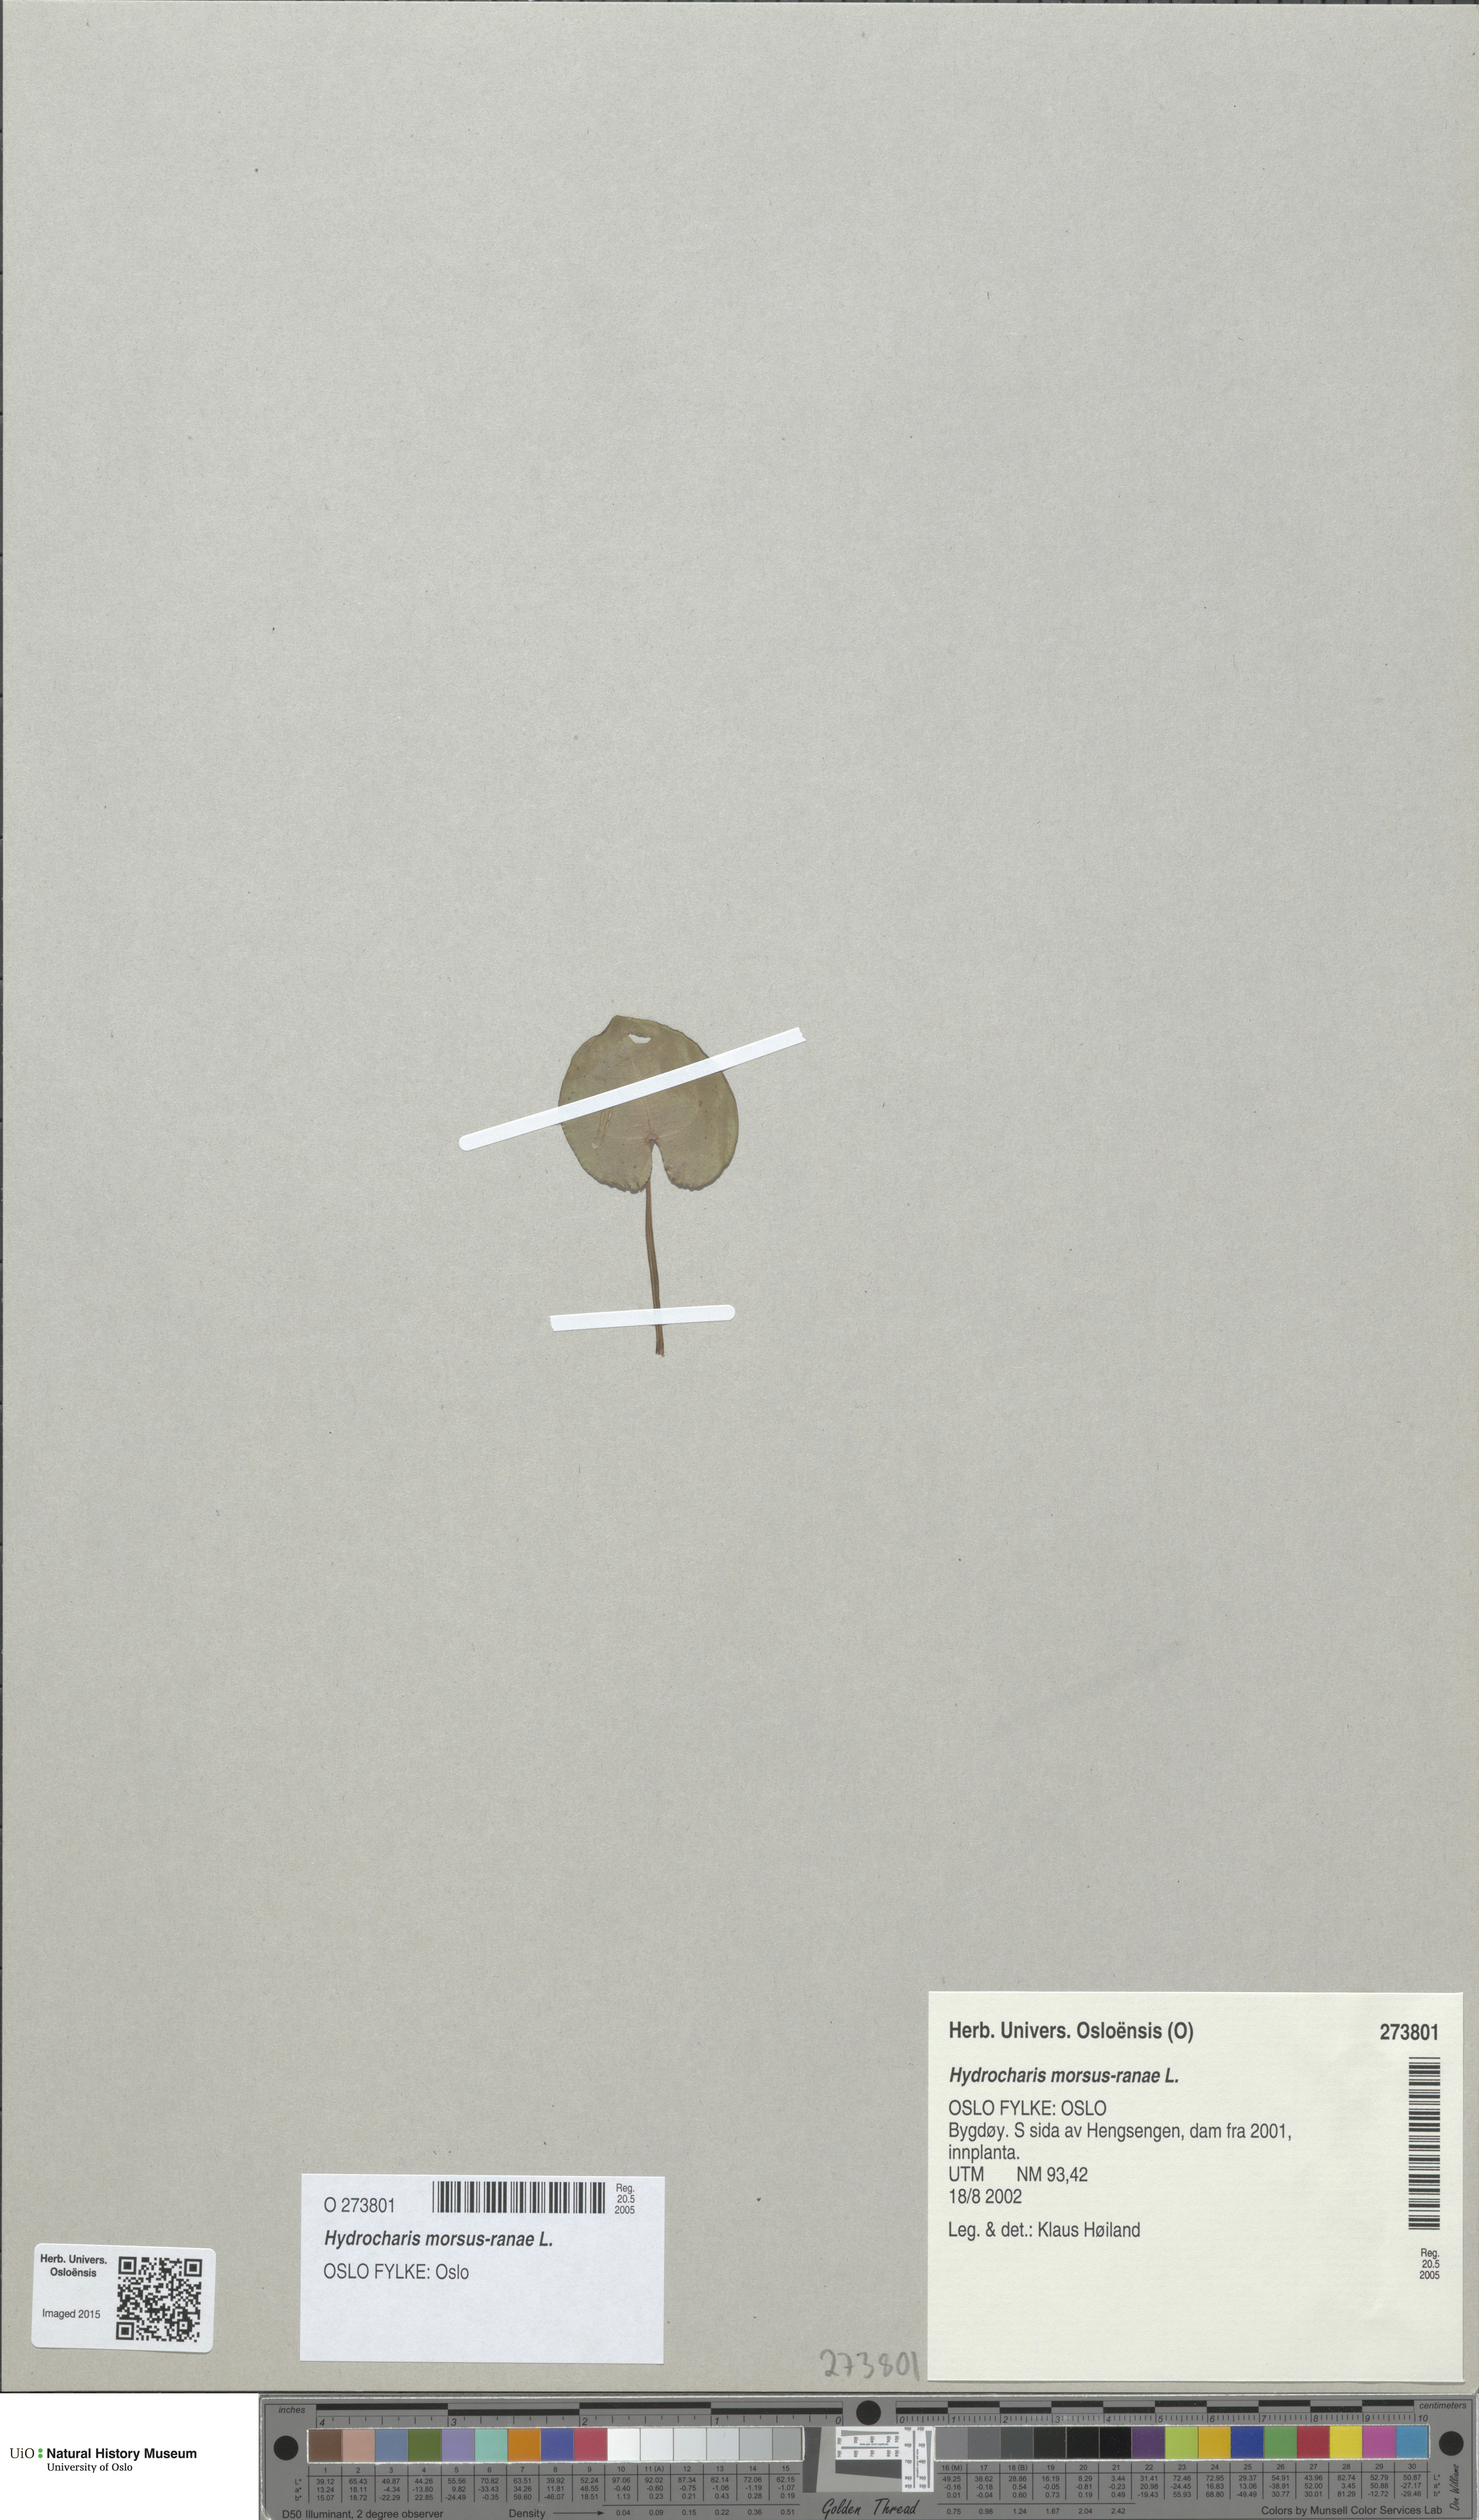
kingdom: Plantae
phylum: Tracheophyta
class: Liliopsida
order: Alismatales
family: Hydrocharitaceae
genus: Hydrocharis
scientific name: Hydrocharis morsus-ranae
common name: Frogbit
